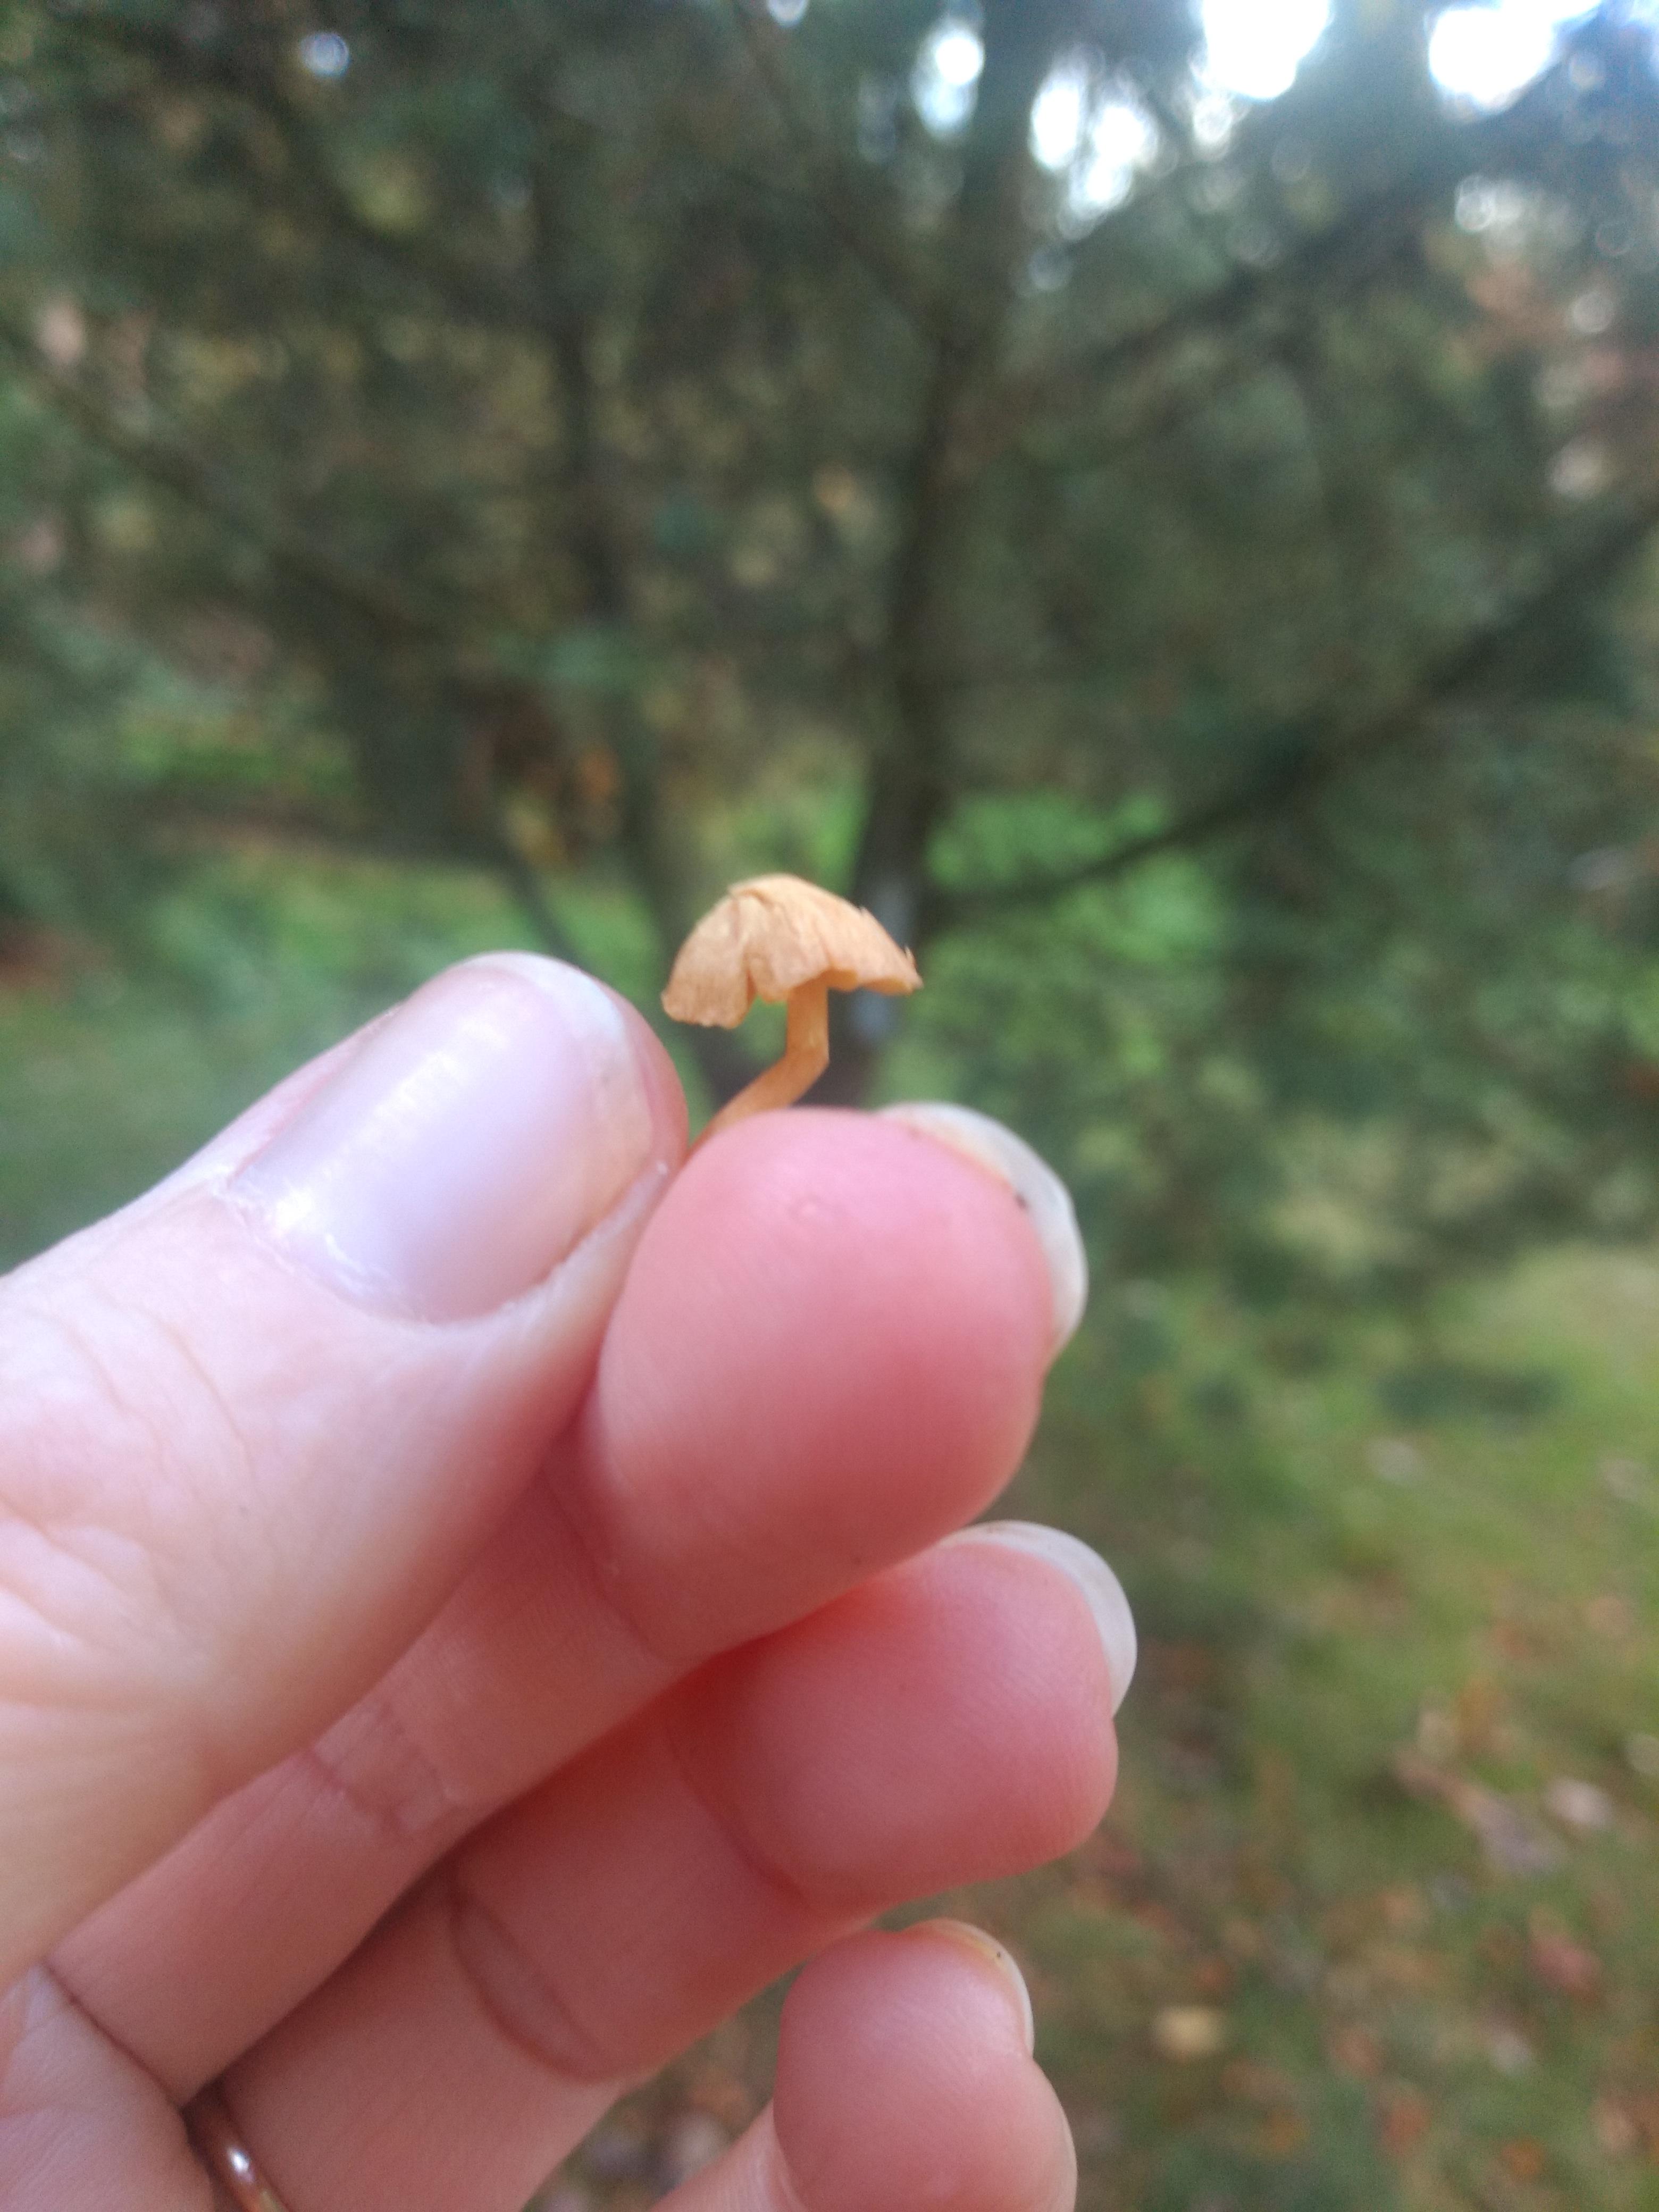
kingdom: Fungi
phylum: Basidiomycota
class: Agaricomycetes
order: Agaricales
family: Hymenogastraceae
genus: Galerina
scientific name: Galerina
